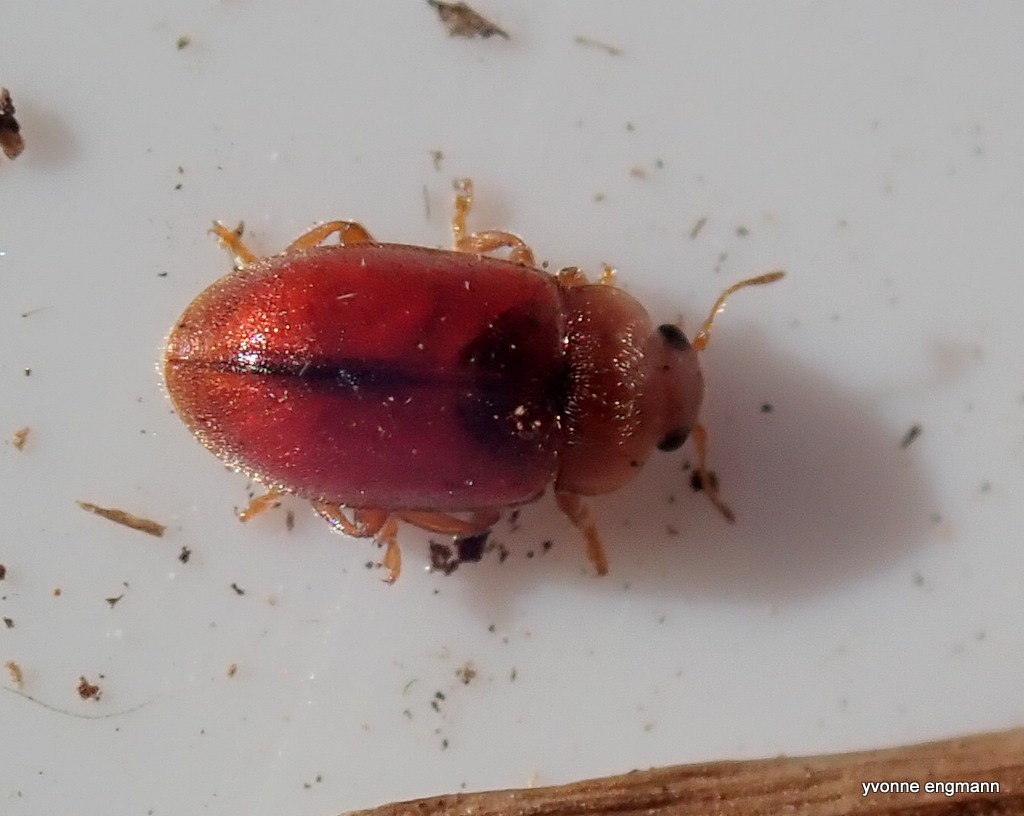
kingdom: Animalia
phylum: Arthropoda
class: Insecta
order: Coleoptera
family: Coccinellidae
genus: Coccidula
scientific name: Coccidula rufa
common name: Slank mariehøne
